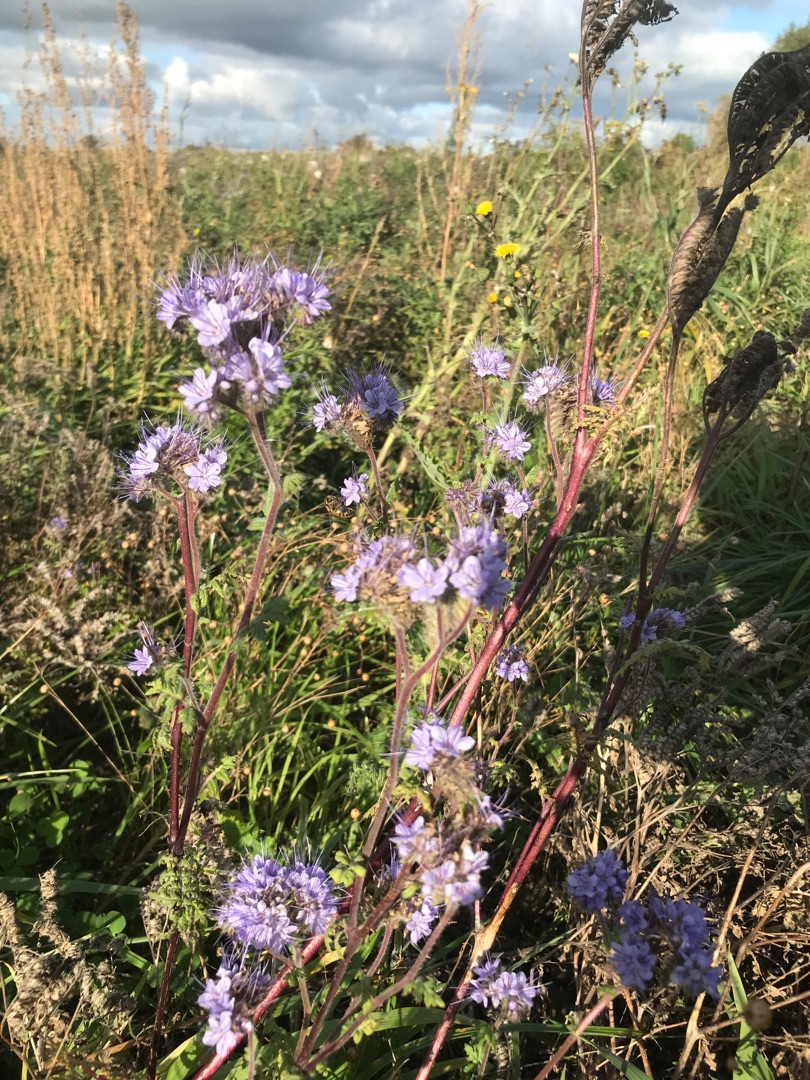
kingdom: Plantae
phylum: Tracheophyta
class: Magnoliopsida
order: Boraginales
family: Hydrophyllaceae
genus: Phacelia
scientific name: Phacelia tanacetifolia
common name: Honningurt
